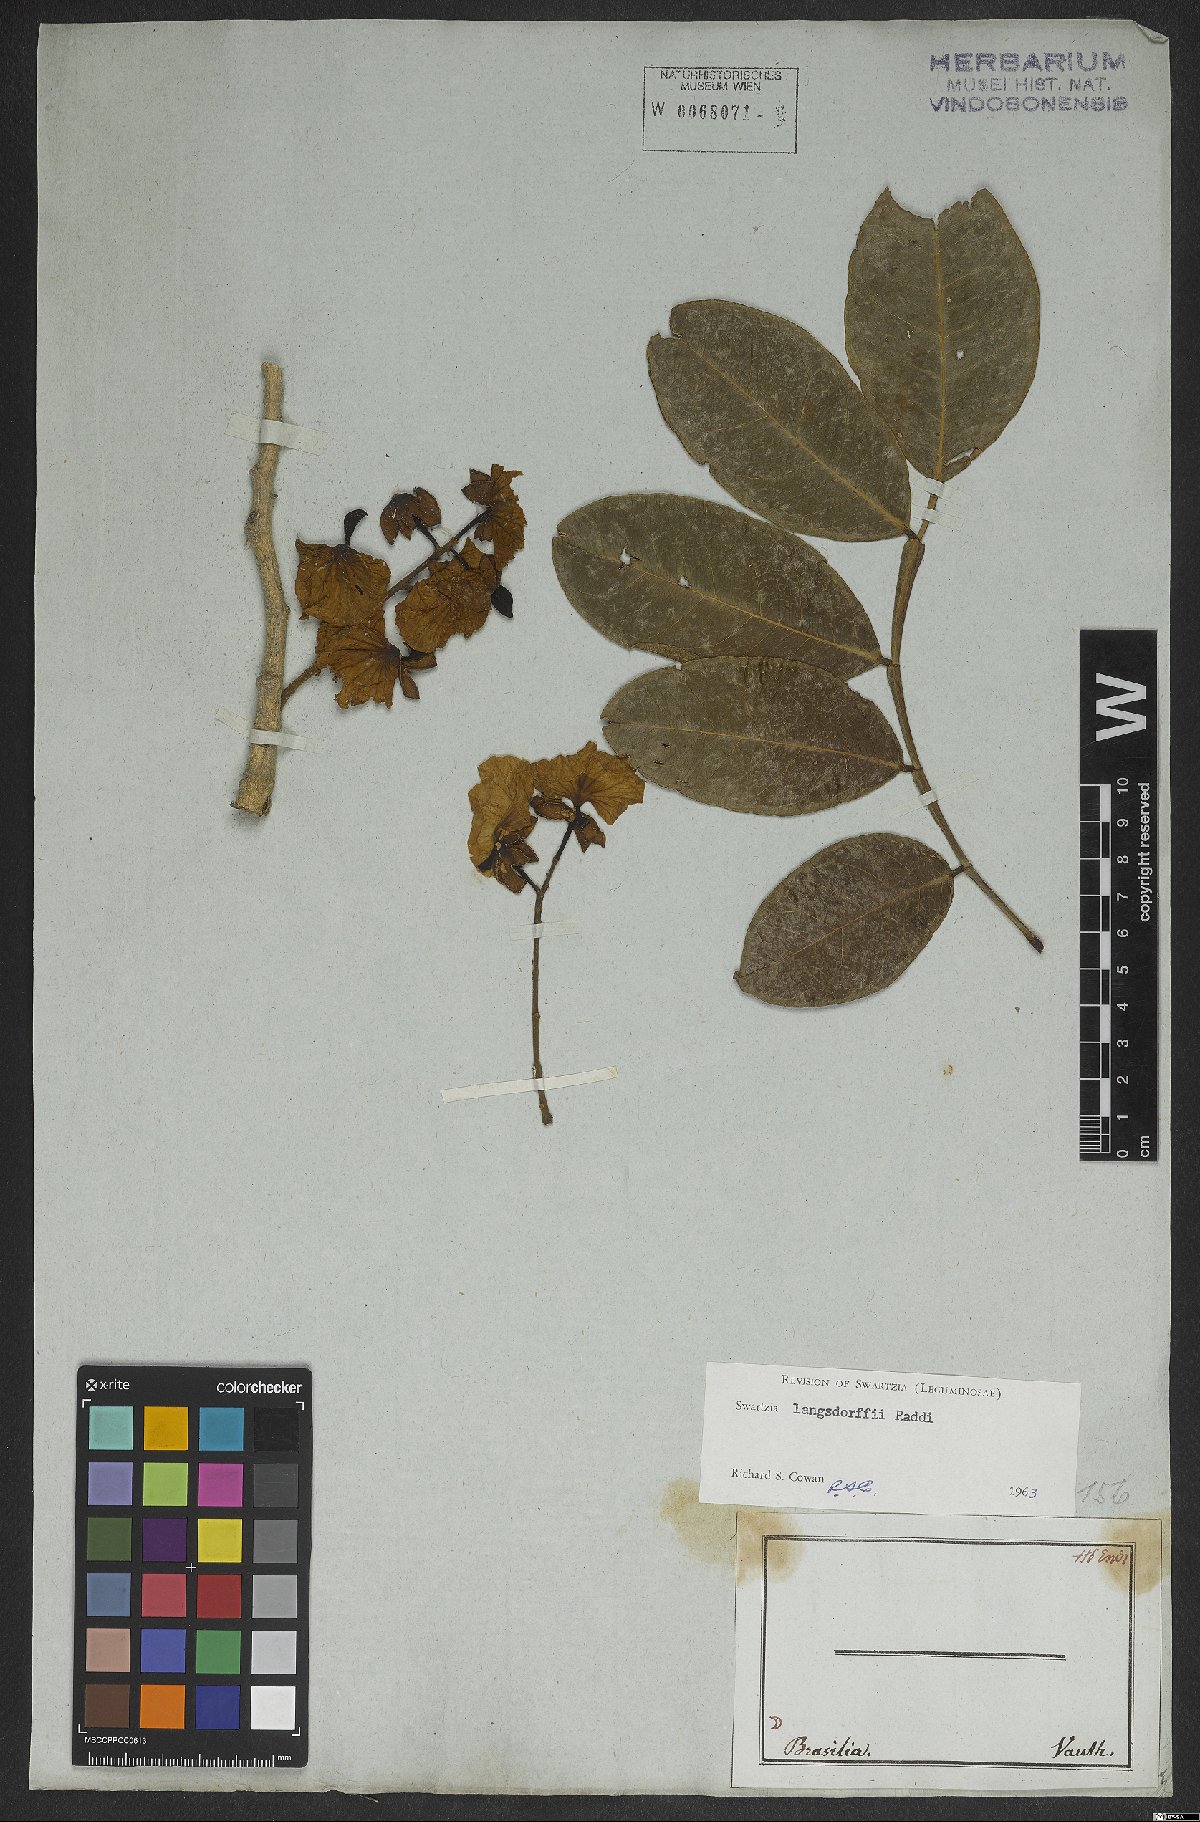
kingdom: Plantae
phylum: Tracheophyta
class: Magnoliopsida
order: Fabales
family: Fabaceae
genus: Swartzia
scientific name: Swartzia langsdorffii
